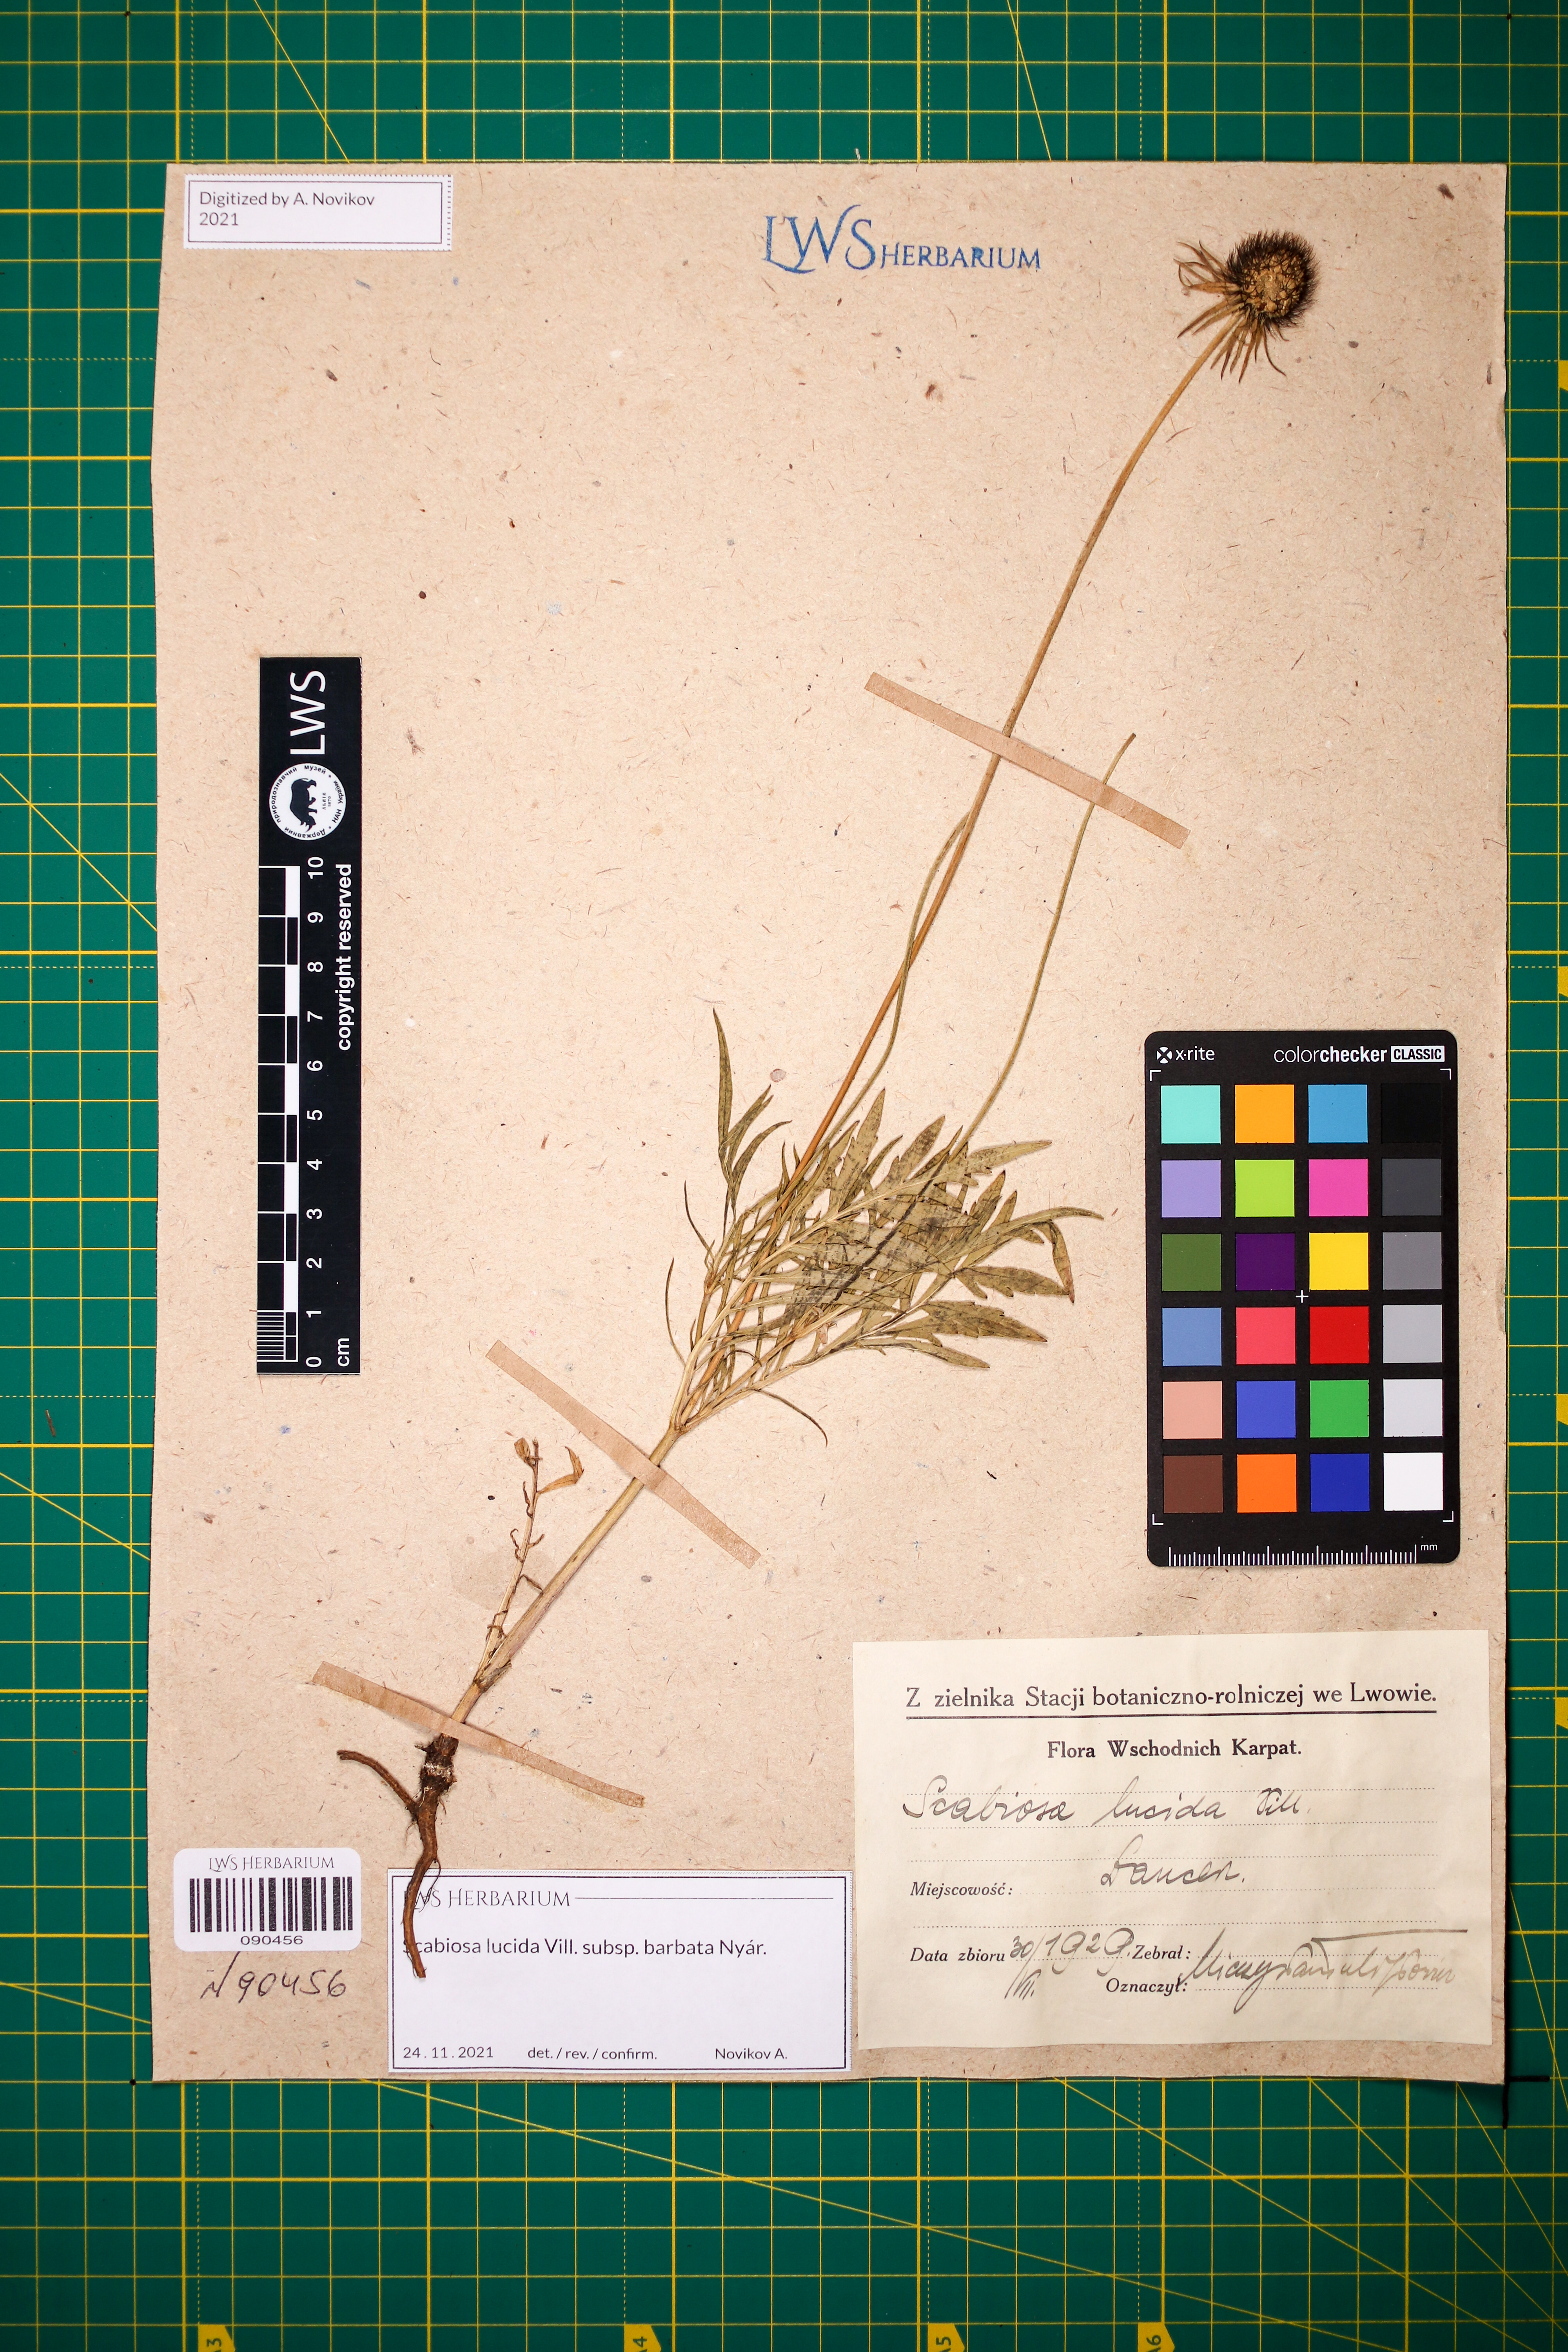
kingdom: Plantae
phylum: Tracheophyta
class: Magnoliopsida
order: Dipsacales
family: Caprifoliaceae
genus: Scabiosa
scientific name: Scabiosa lucida
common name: Shining scabious
